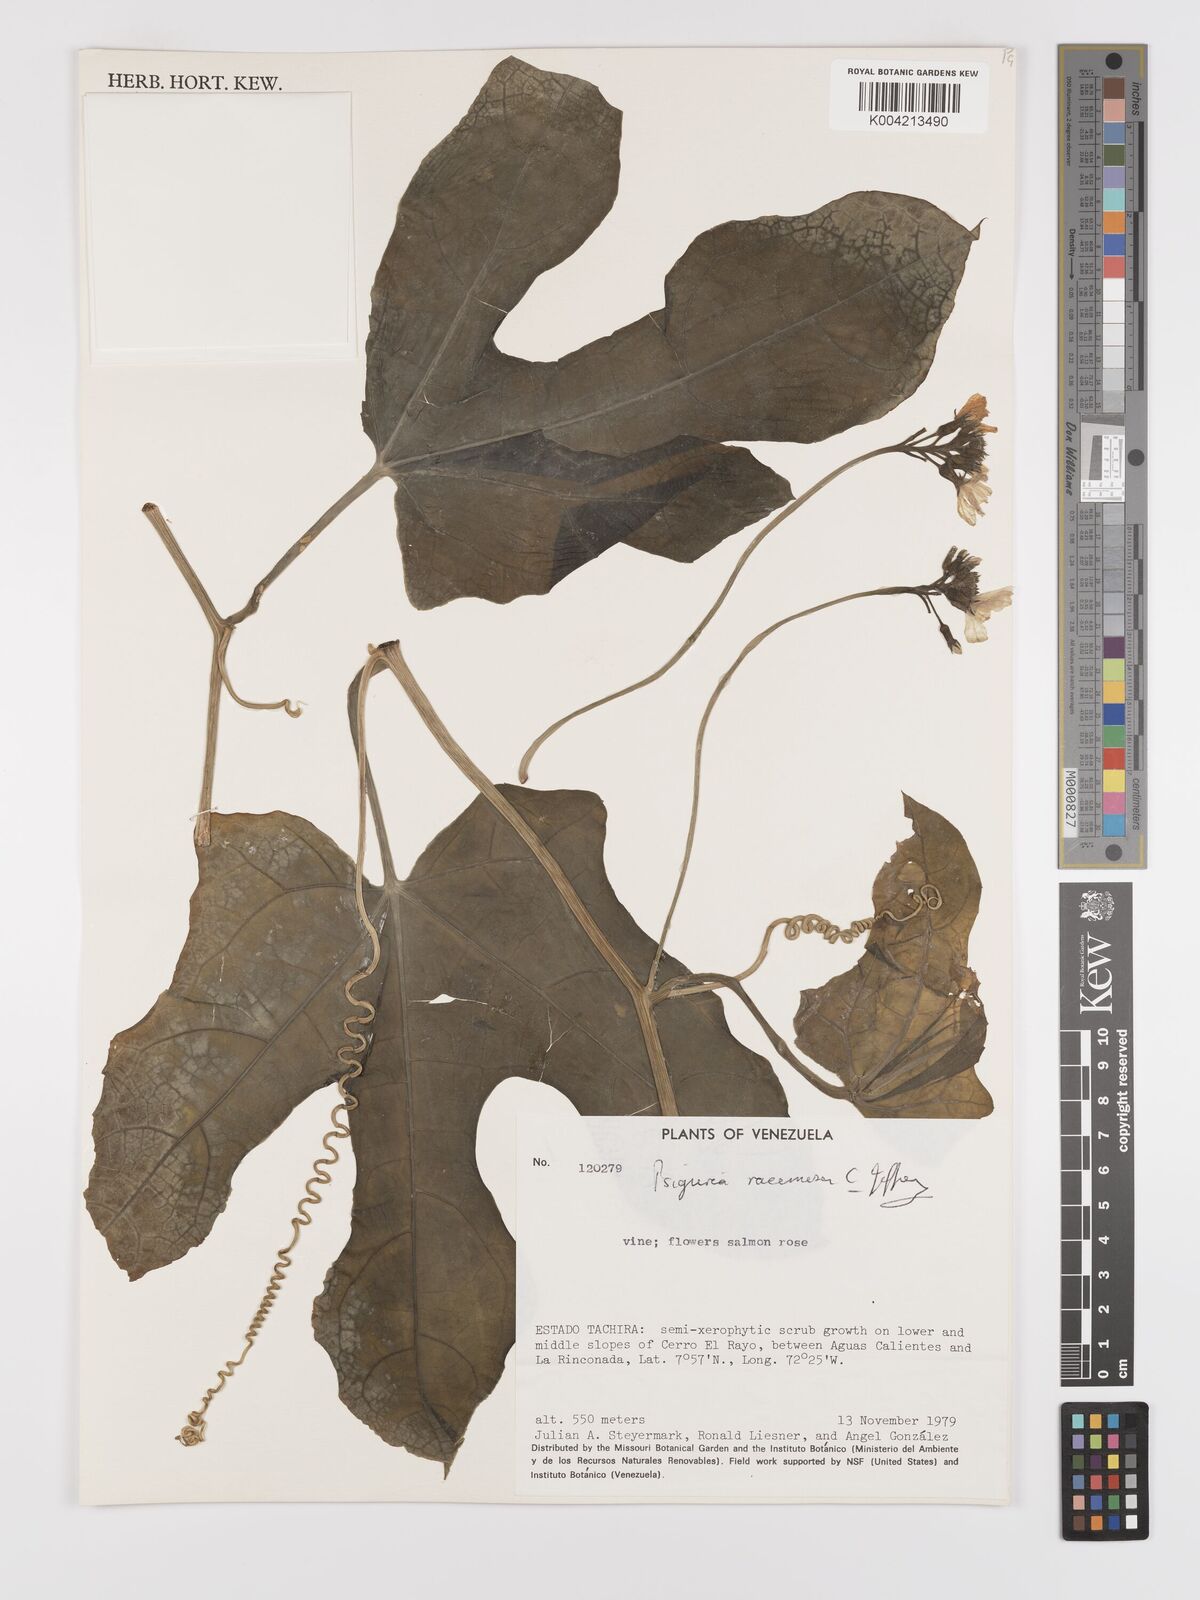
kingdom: Plantae
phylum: Tracheophyta
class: Magnoliopsida
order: Cucurbitales
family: Cucurbitaceae
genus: Psiguria
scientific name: Psiguria racemosa
